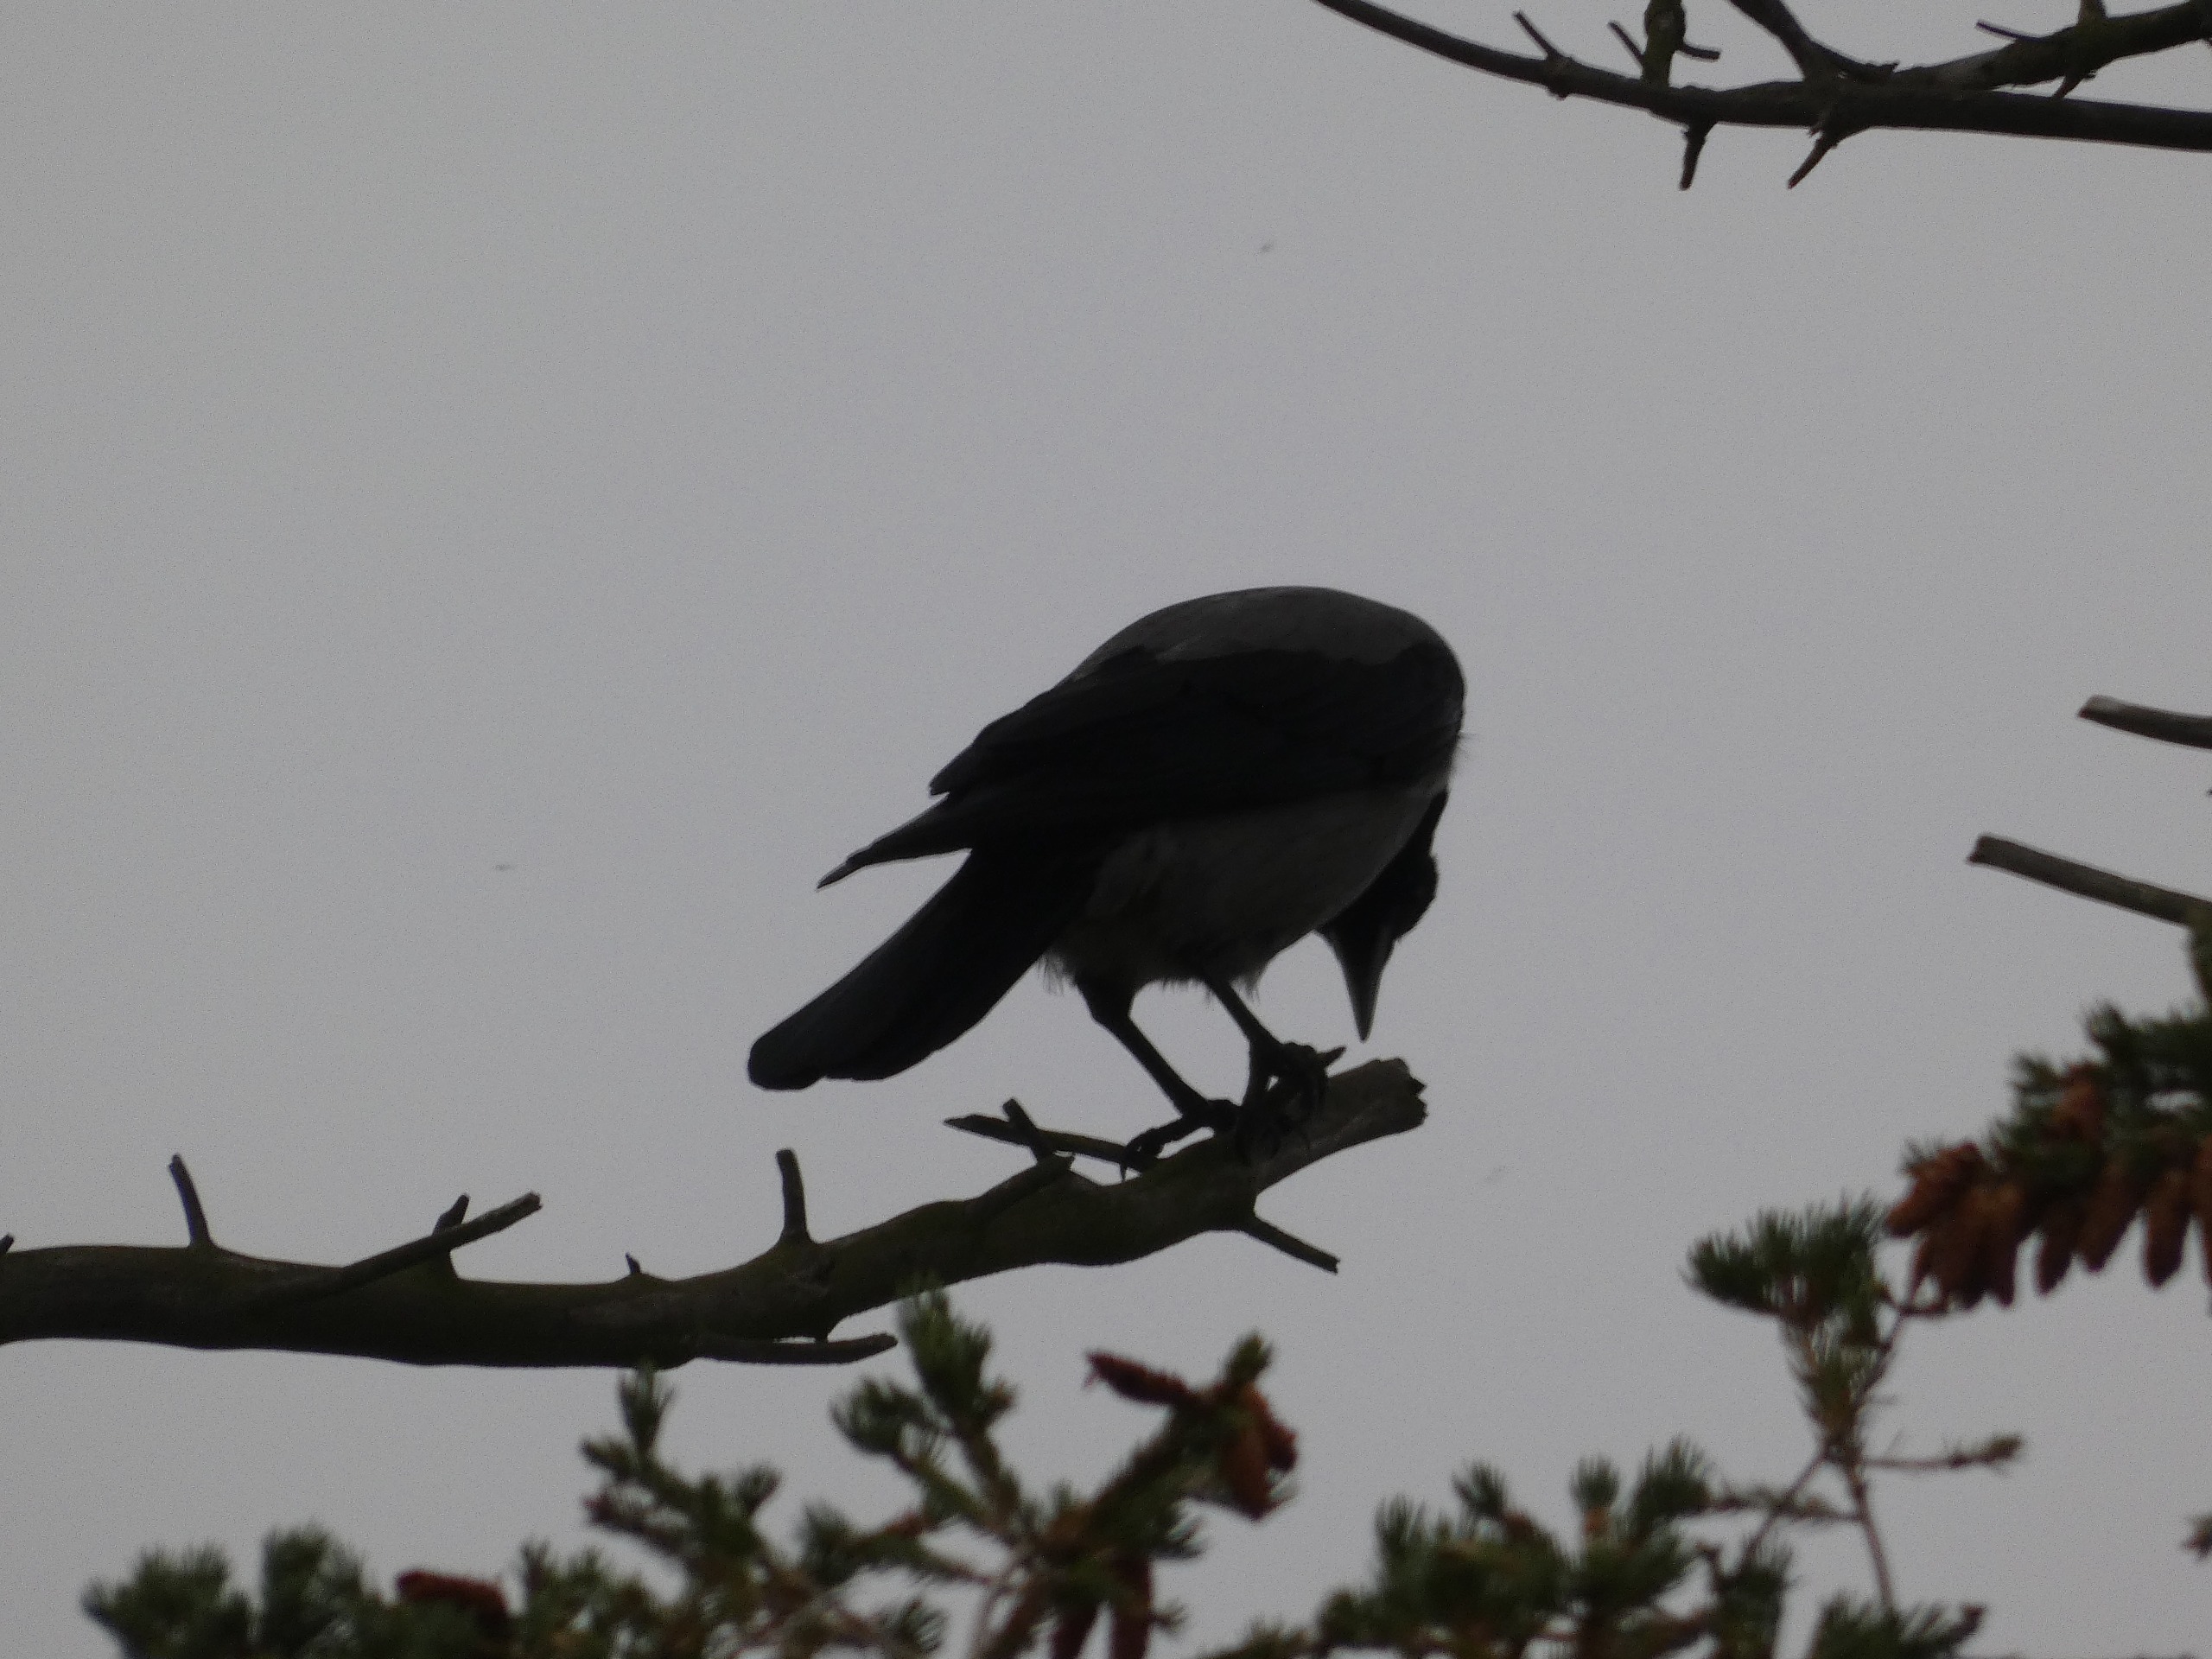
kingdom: Animalia
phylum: Chordata
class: Aves
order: Passeriformes
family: Corvidae
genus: Corvus
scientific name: Corvus cornix
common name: Gråkrage
